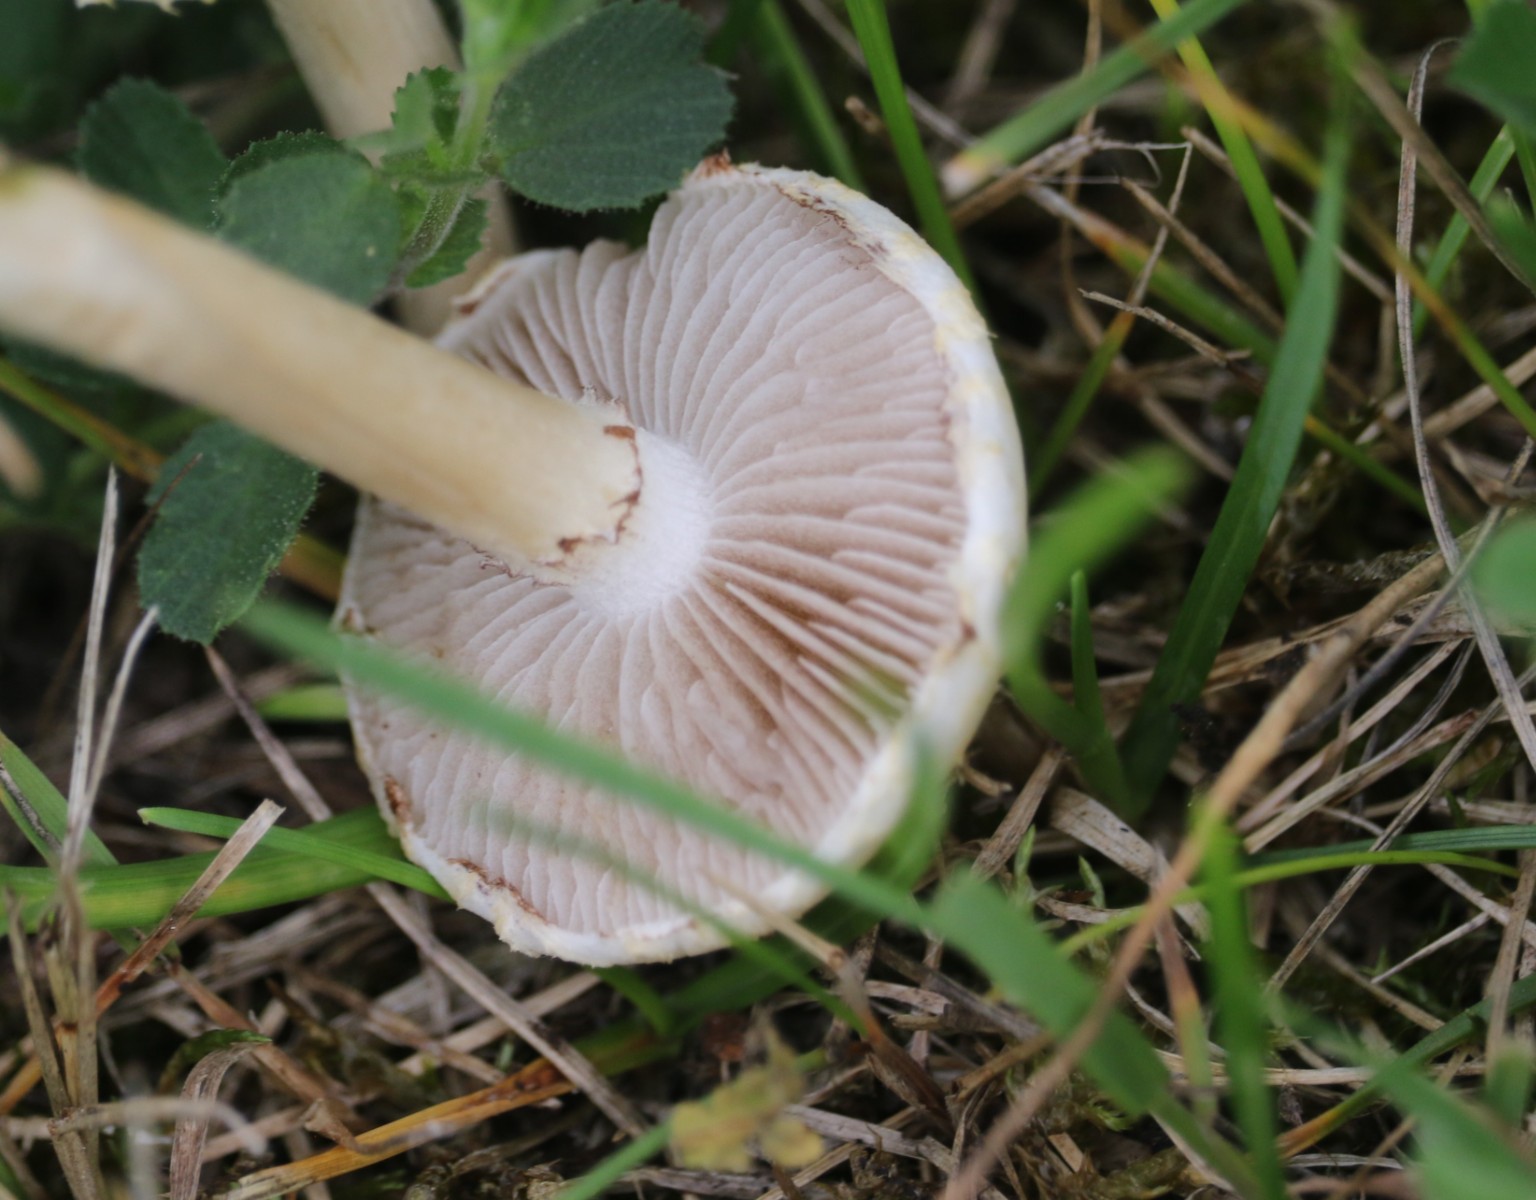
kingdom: Fungi
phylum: Basidiomycota
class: Agaricomycetes
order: Agaricales
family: Strophariaceae
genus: Agrocybe
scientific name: Agrocybe dura
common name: fastkødet agerhat
